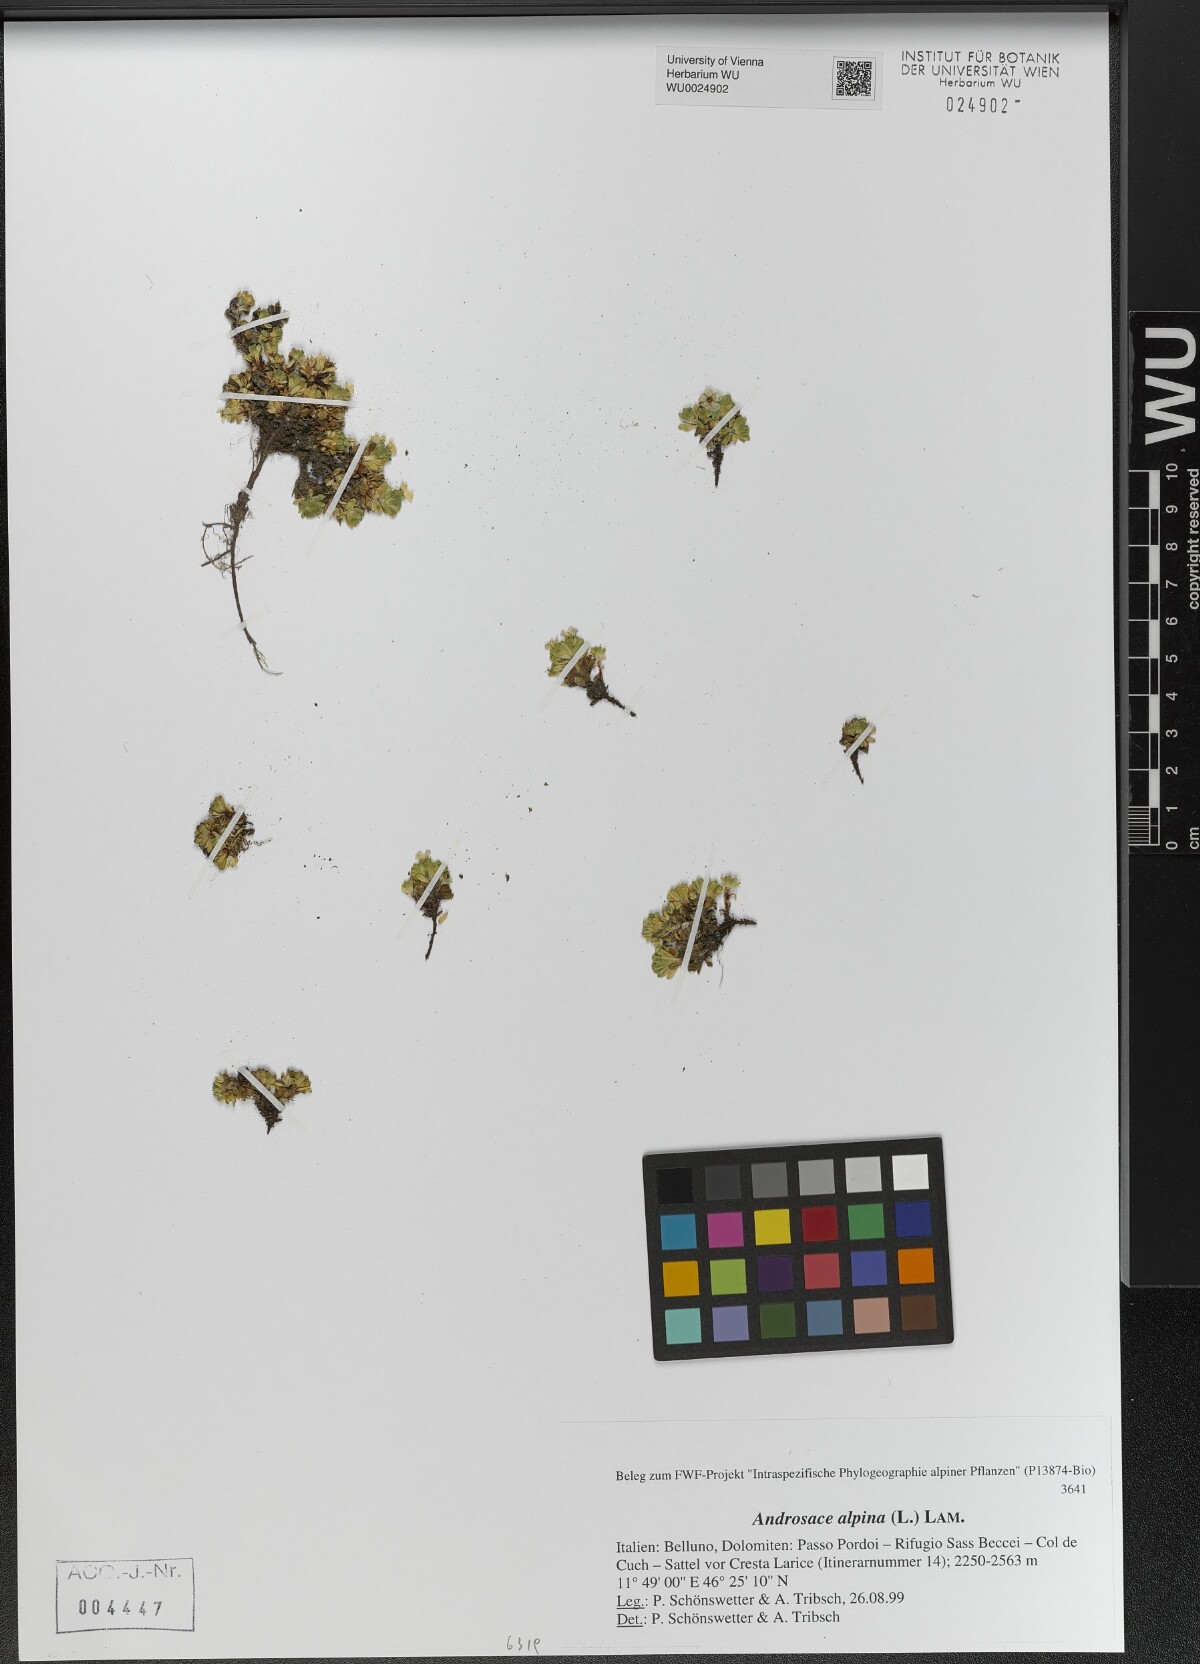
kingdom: Plantae
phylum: Tracheophyta
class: Magnoliopsida
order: Ericales
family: Primulaceae
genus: Androsace
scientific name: Androsace alpina
